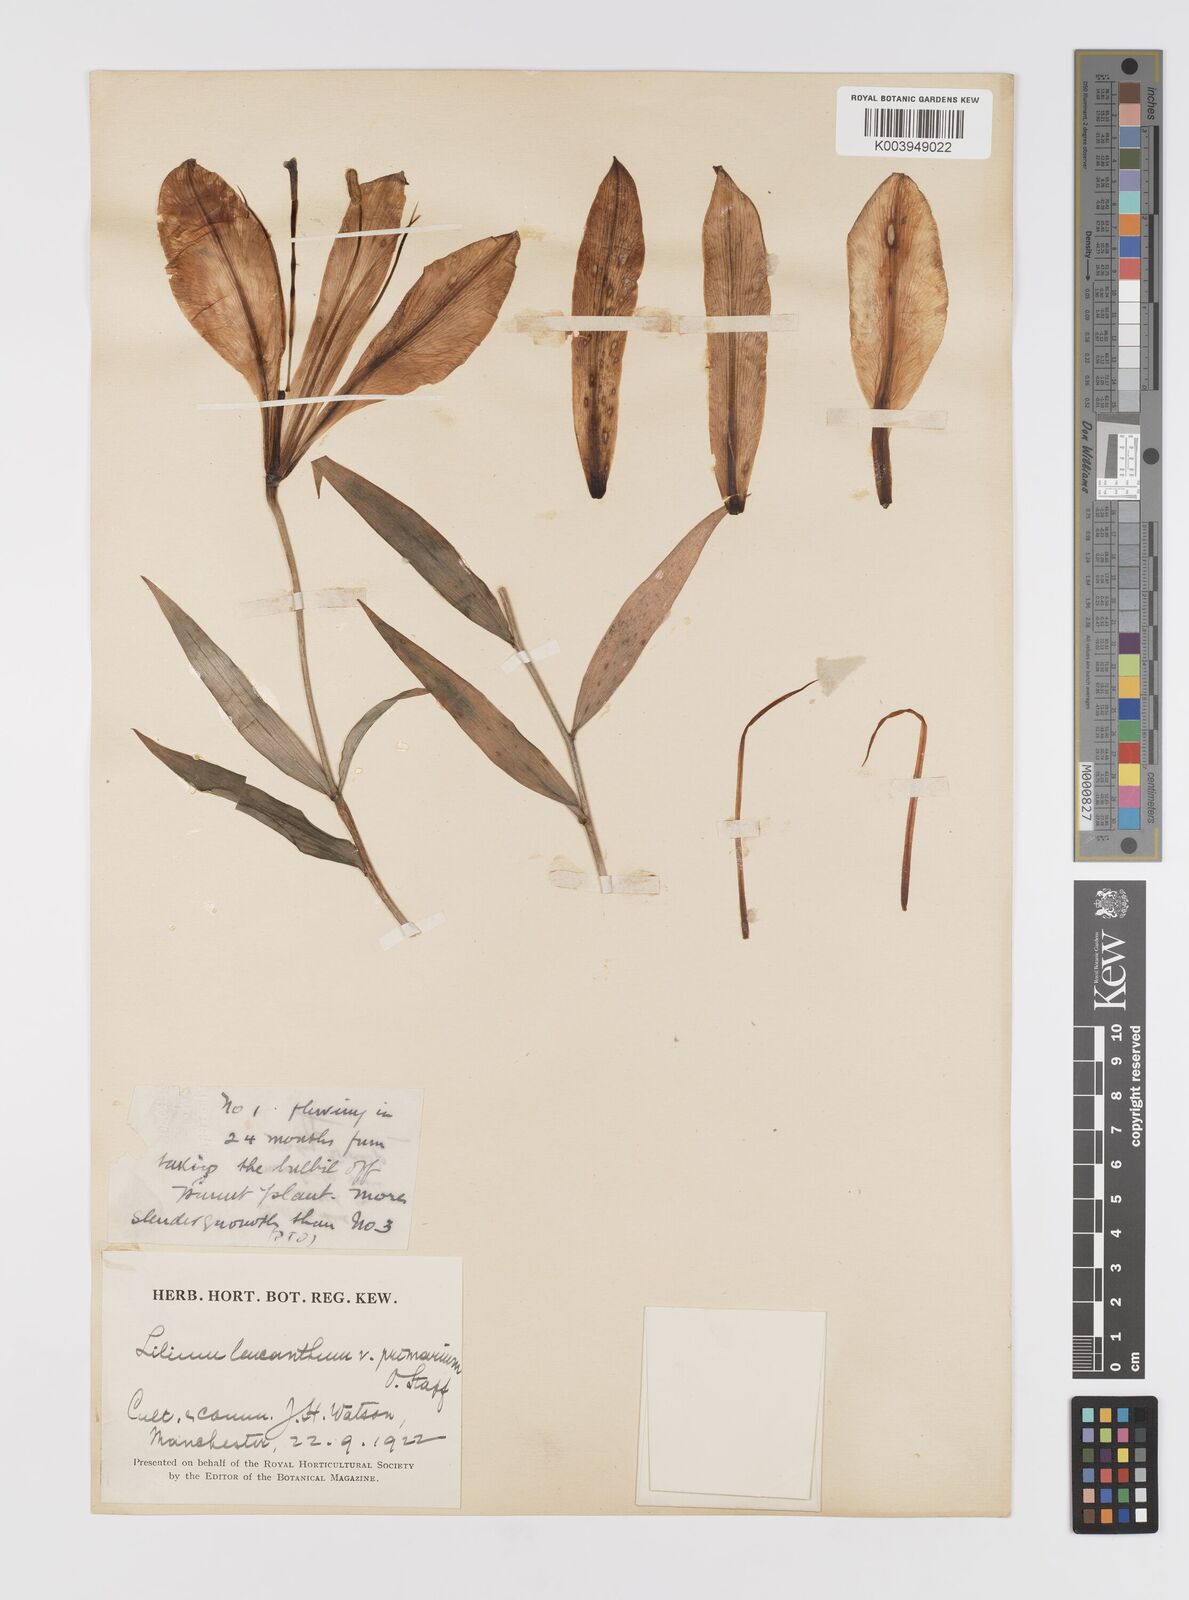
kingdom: Plantae
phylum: Tracheophyta
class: Liliopsida
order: Liliales
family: Liliaceae
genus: Lilium
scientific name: Lilium sargentiae
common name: Sargent lily
